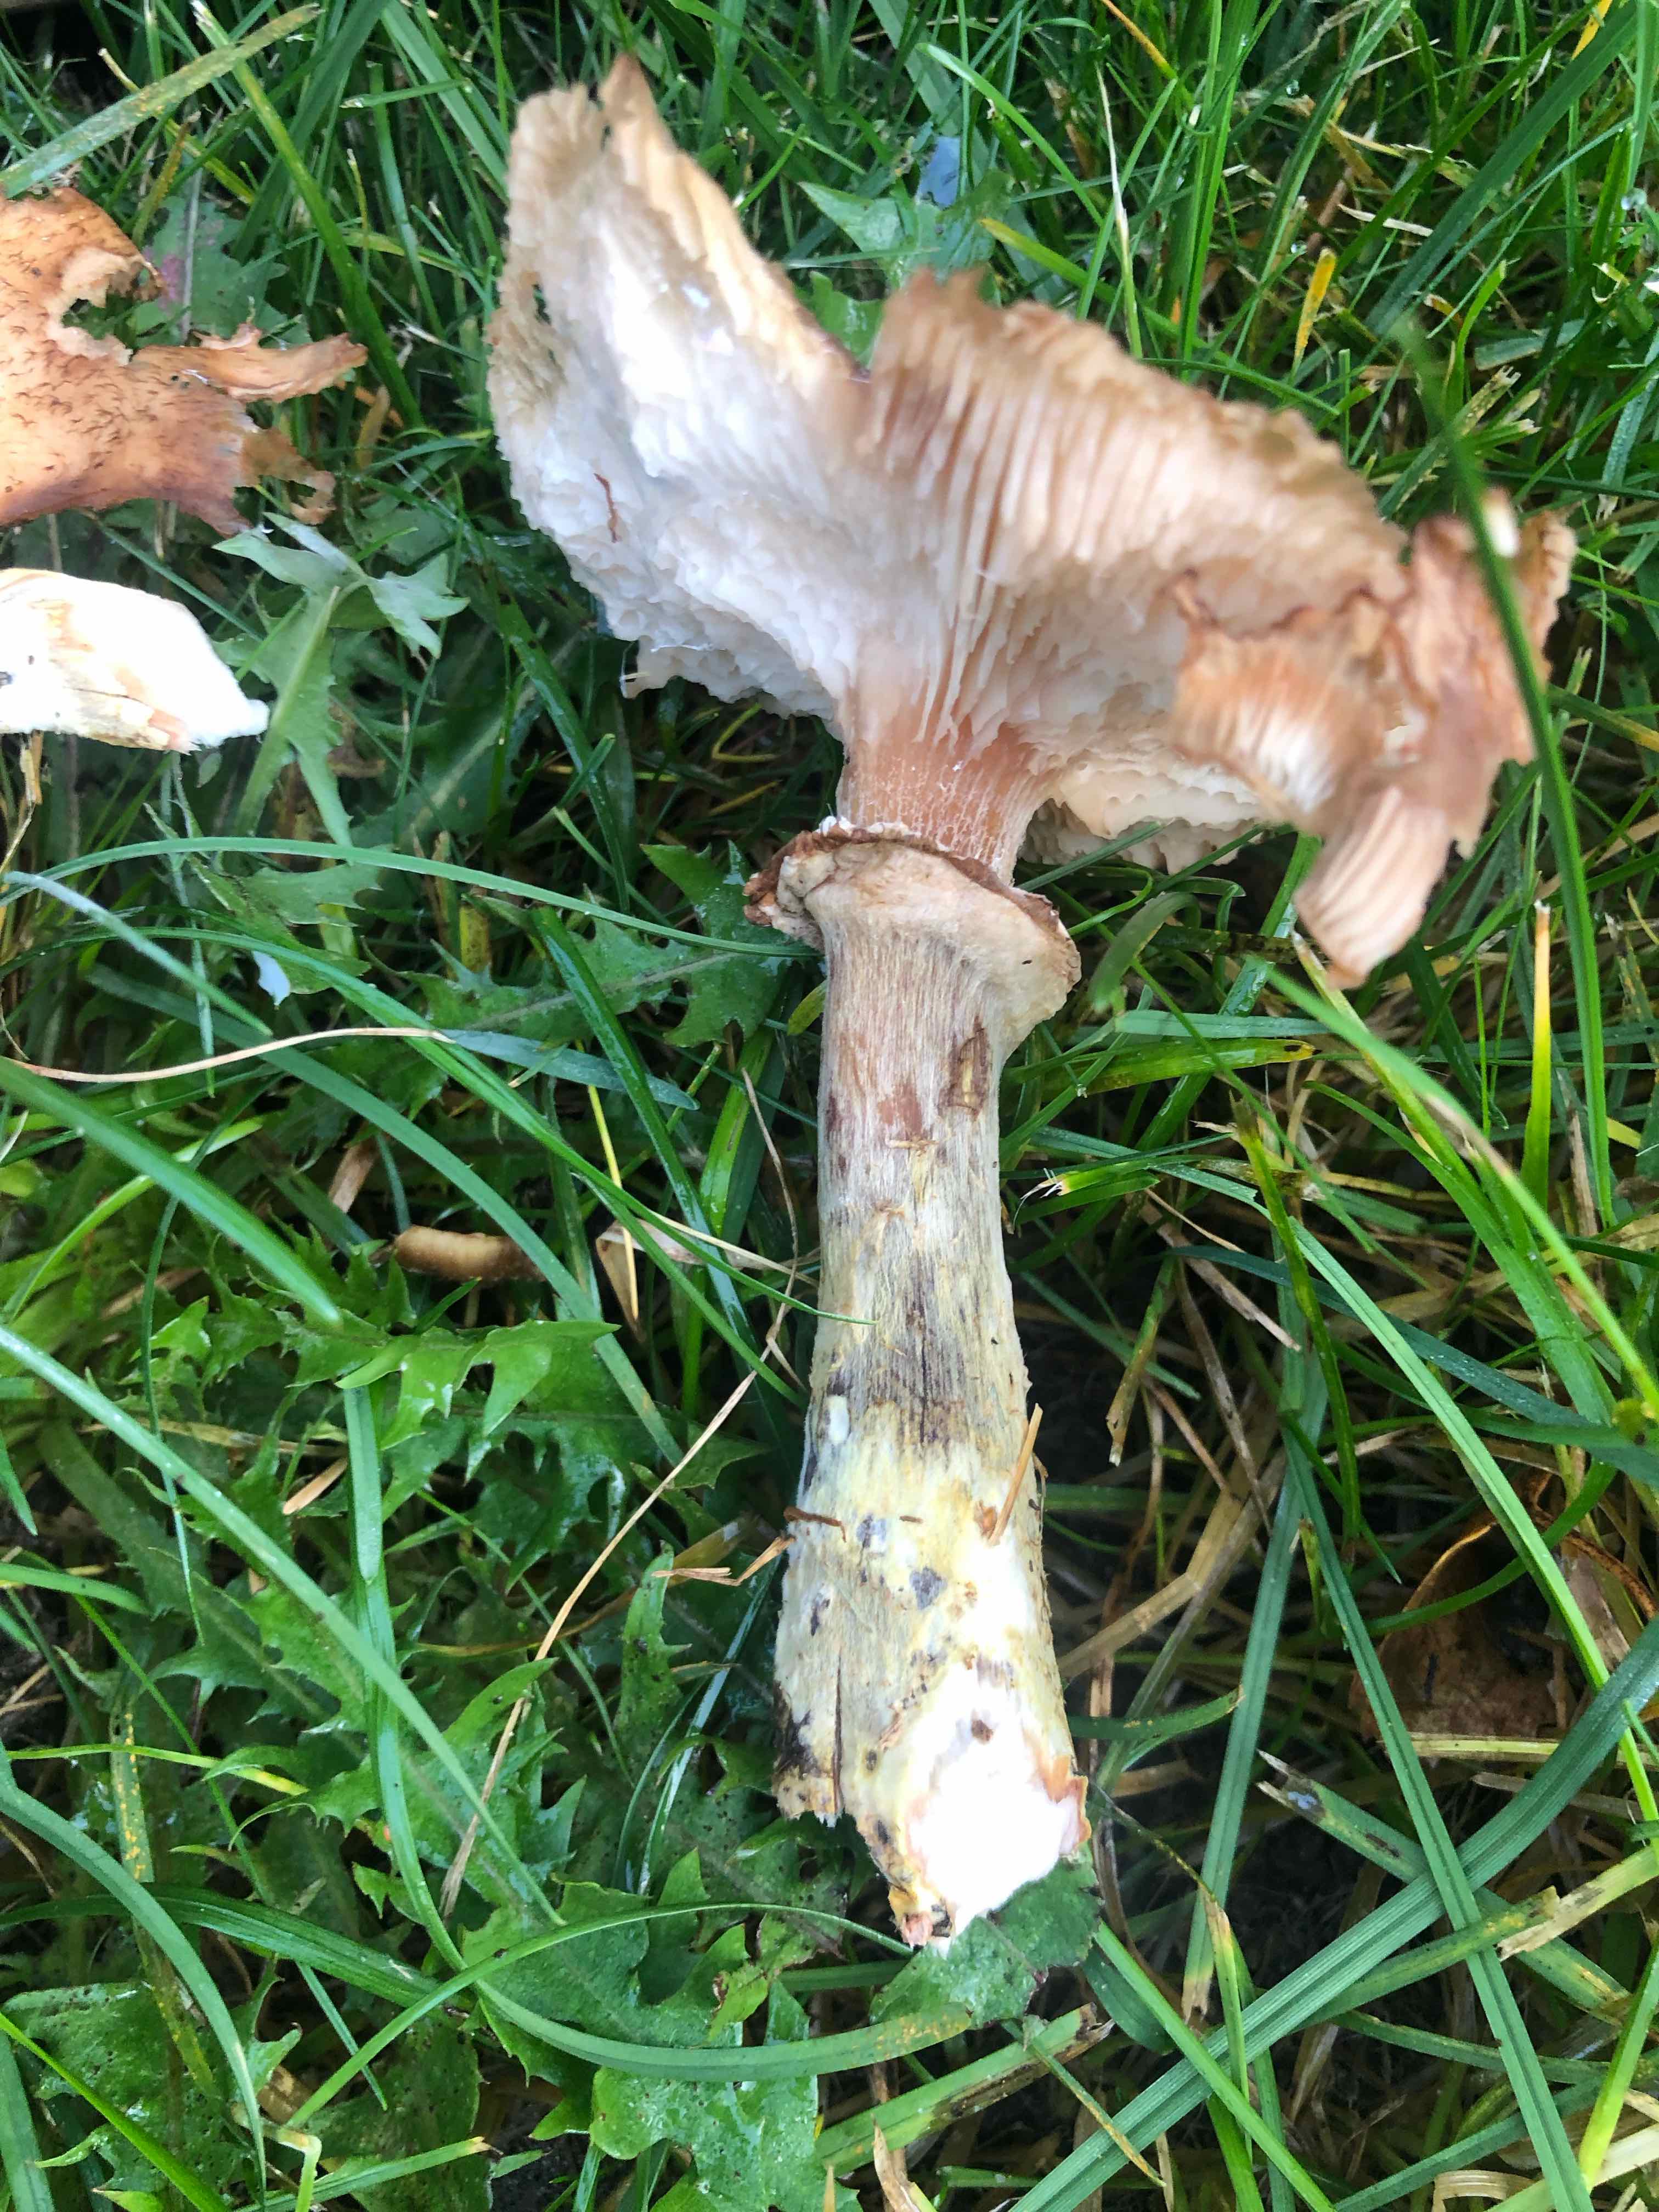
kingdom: Fungi
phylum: Basidiomycota
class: Agaricomycetes
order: Agaricales
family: Physalacriaceae
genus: Armillaria
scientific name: Armillaria lutea
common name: køllestokket honningsvamp
